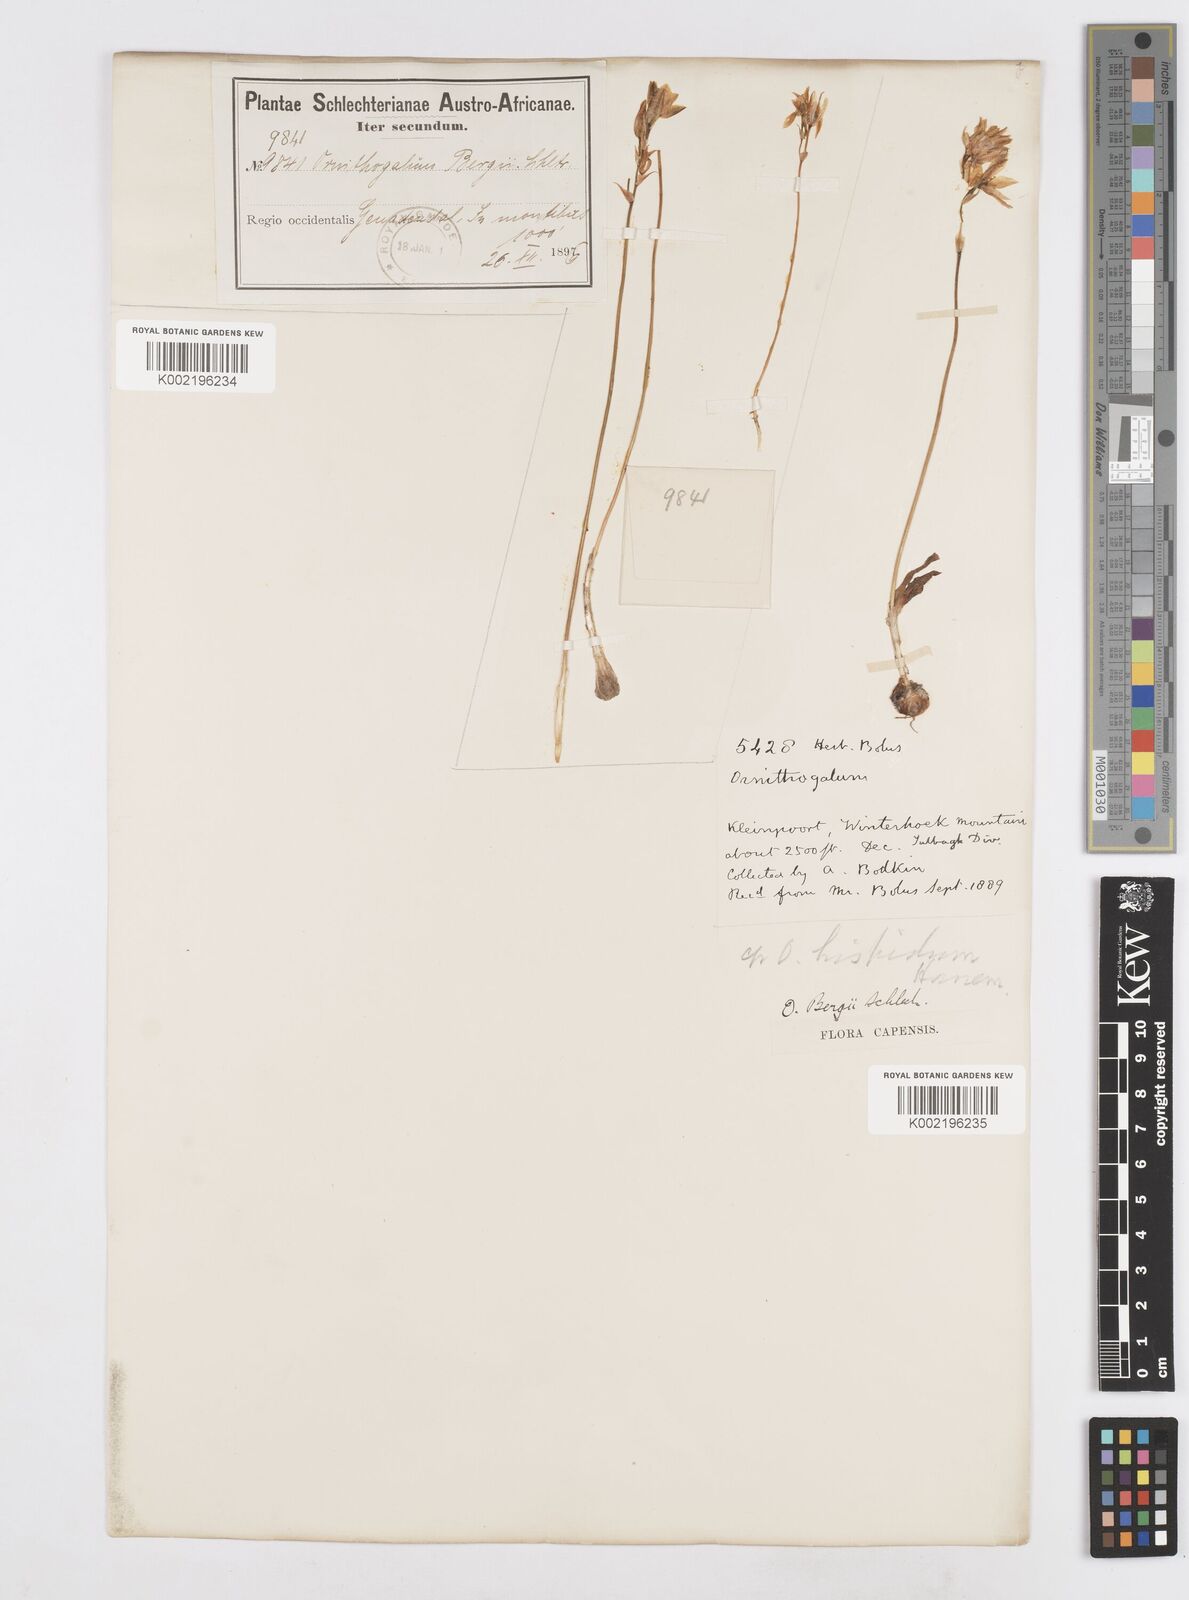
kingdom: Plantae
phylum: Tracheophyta
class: Liliopsida
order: Asparagales
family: Asparagaceae
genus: Ornithogalum
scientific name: Ornithogalum hispidum
